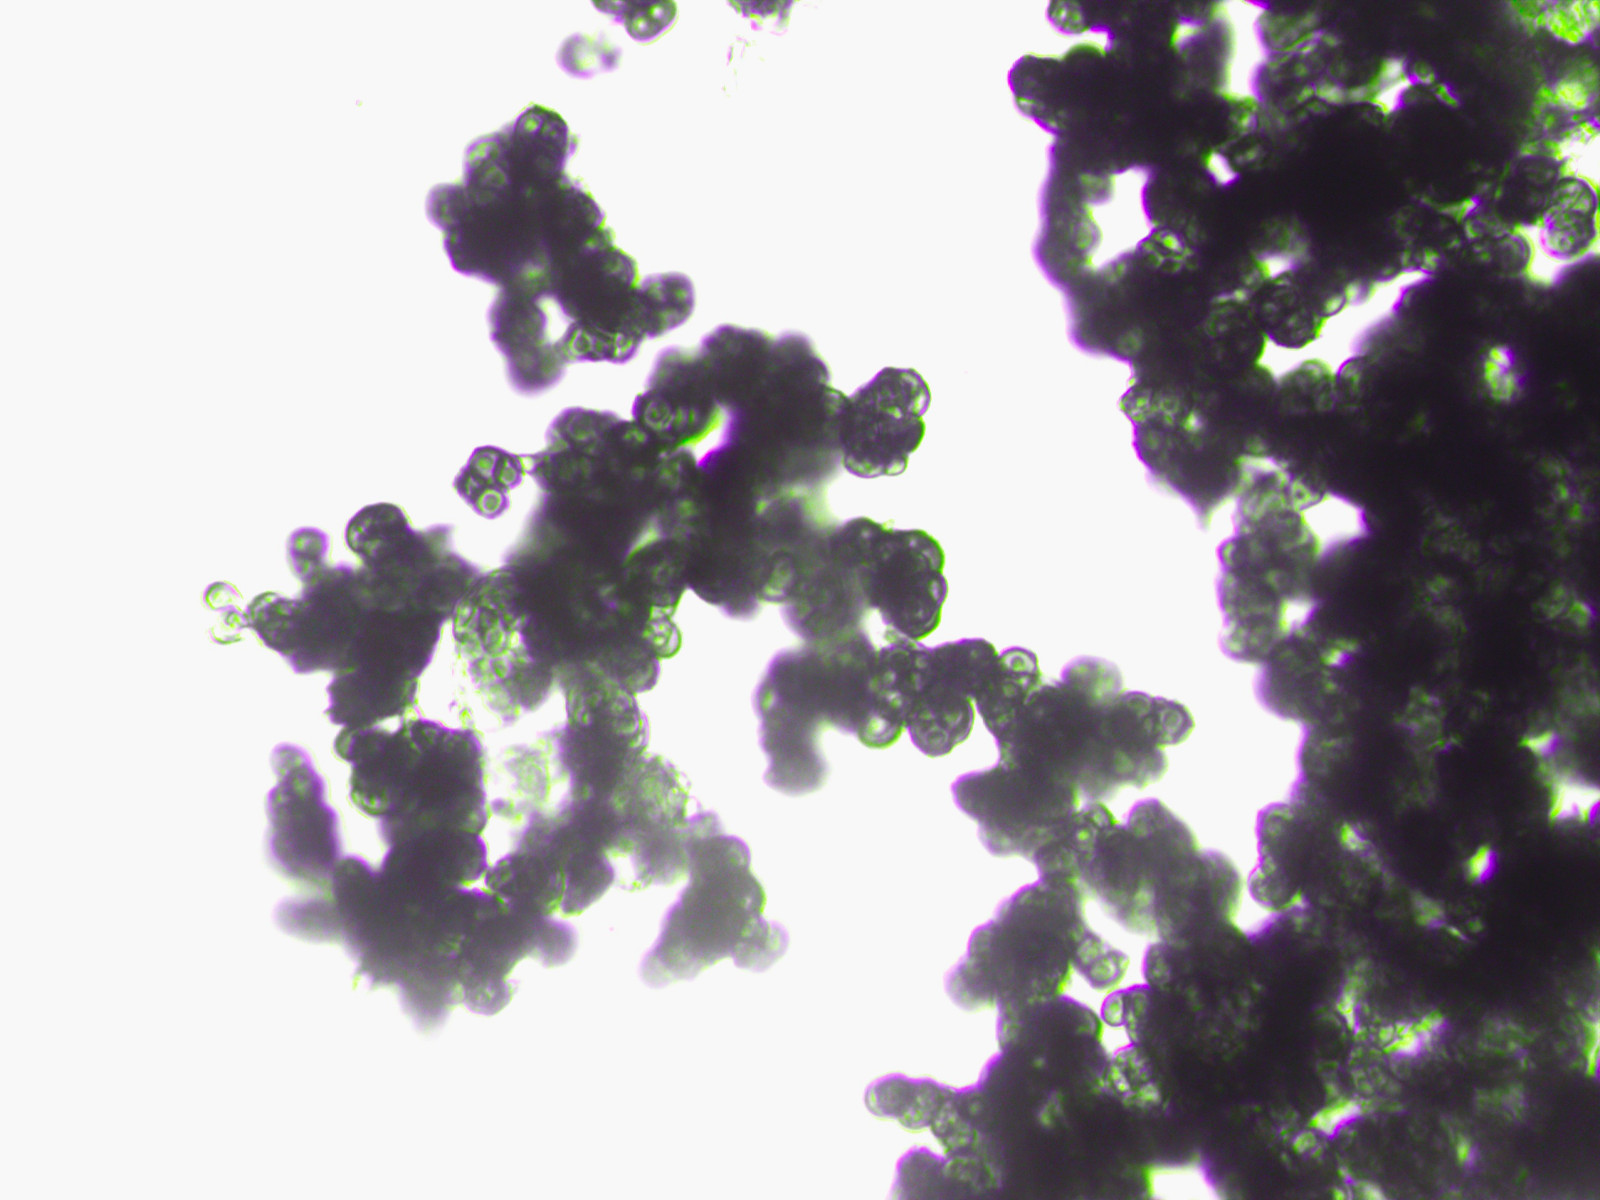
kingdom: Fungi
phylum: Ascomycota
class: Leotiomycetes
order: Helotiales
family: Mollisiaceae
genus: Trimmatostroma
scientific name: Trimmatostroma betulinum
